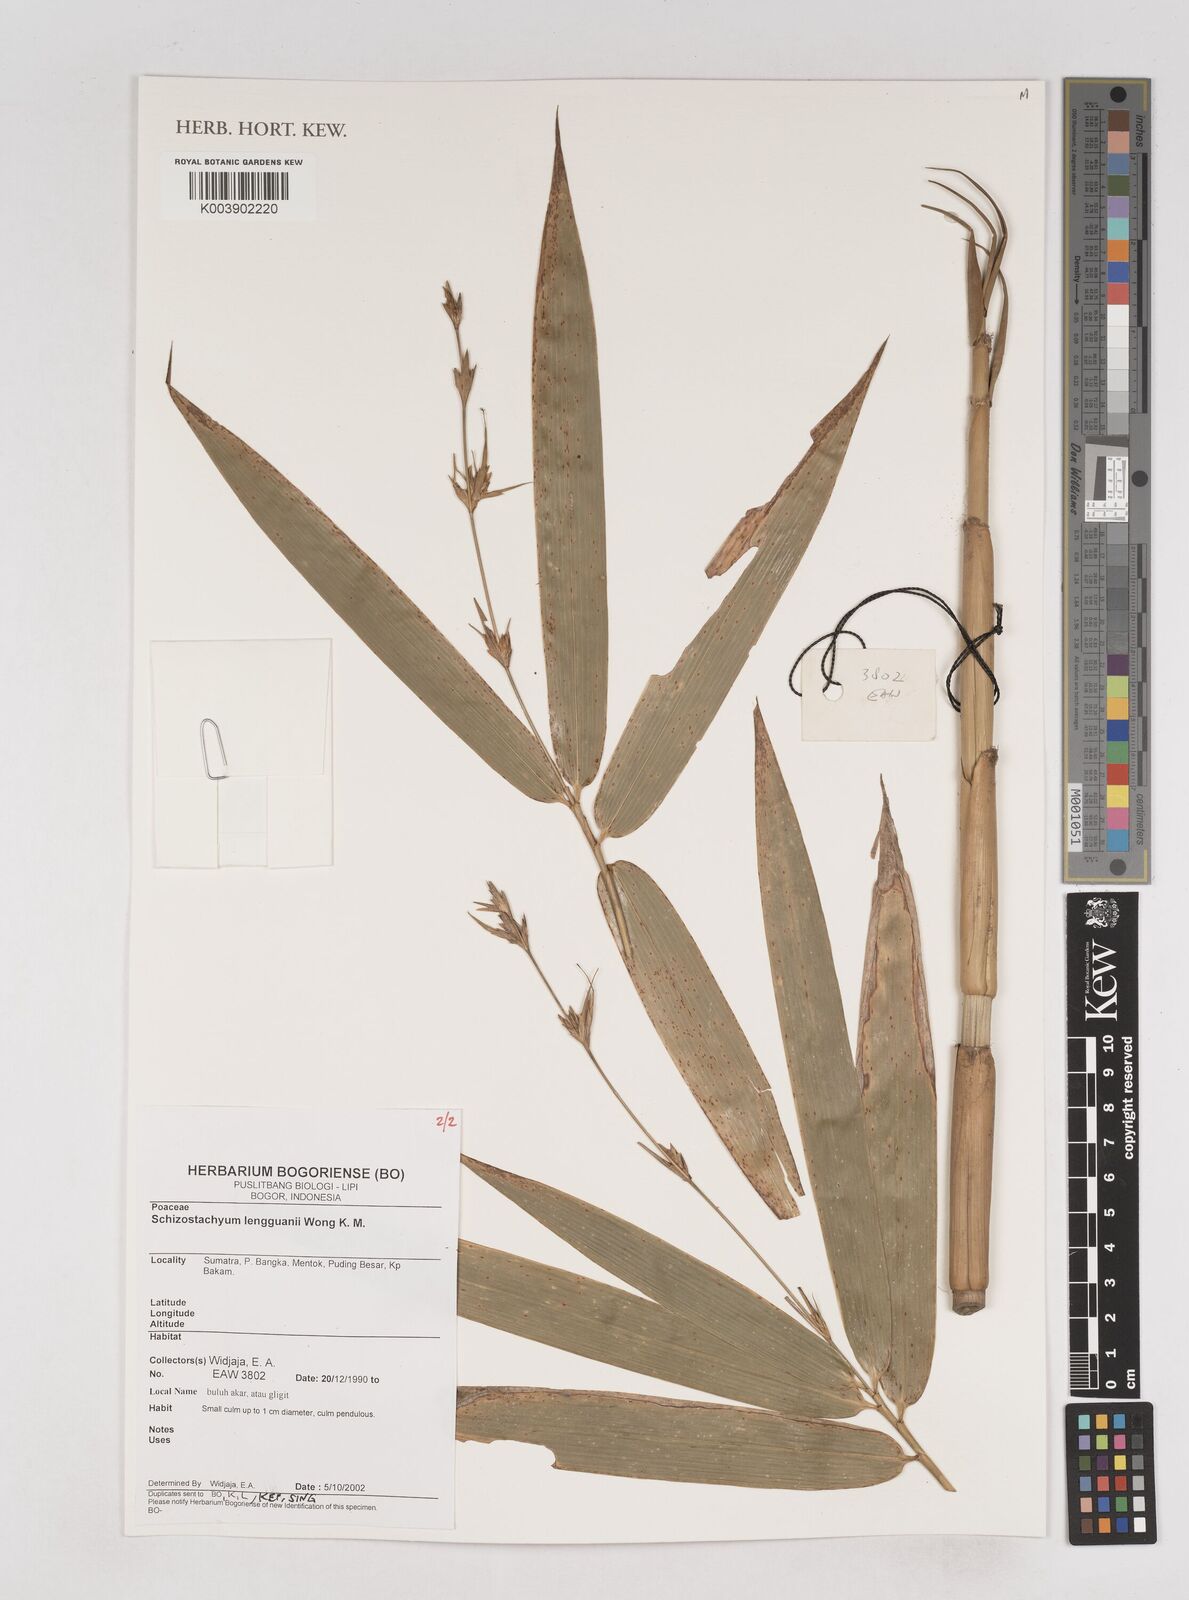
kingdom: Plantae
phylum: Tracheophyta
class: Liliopsida
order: Poales
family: Poaceae
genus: Schizostachyum
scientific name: Schizostachyum lengguanii
